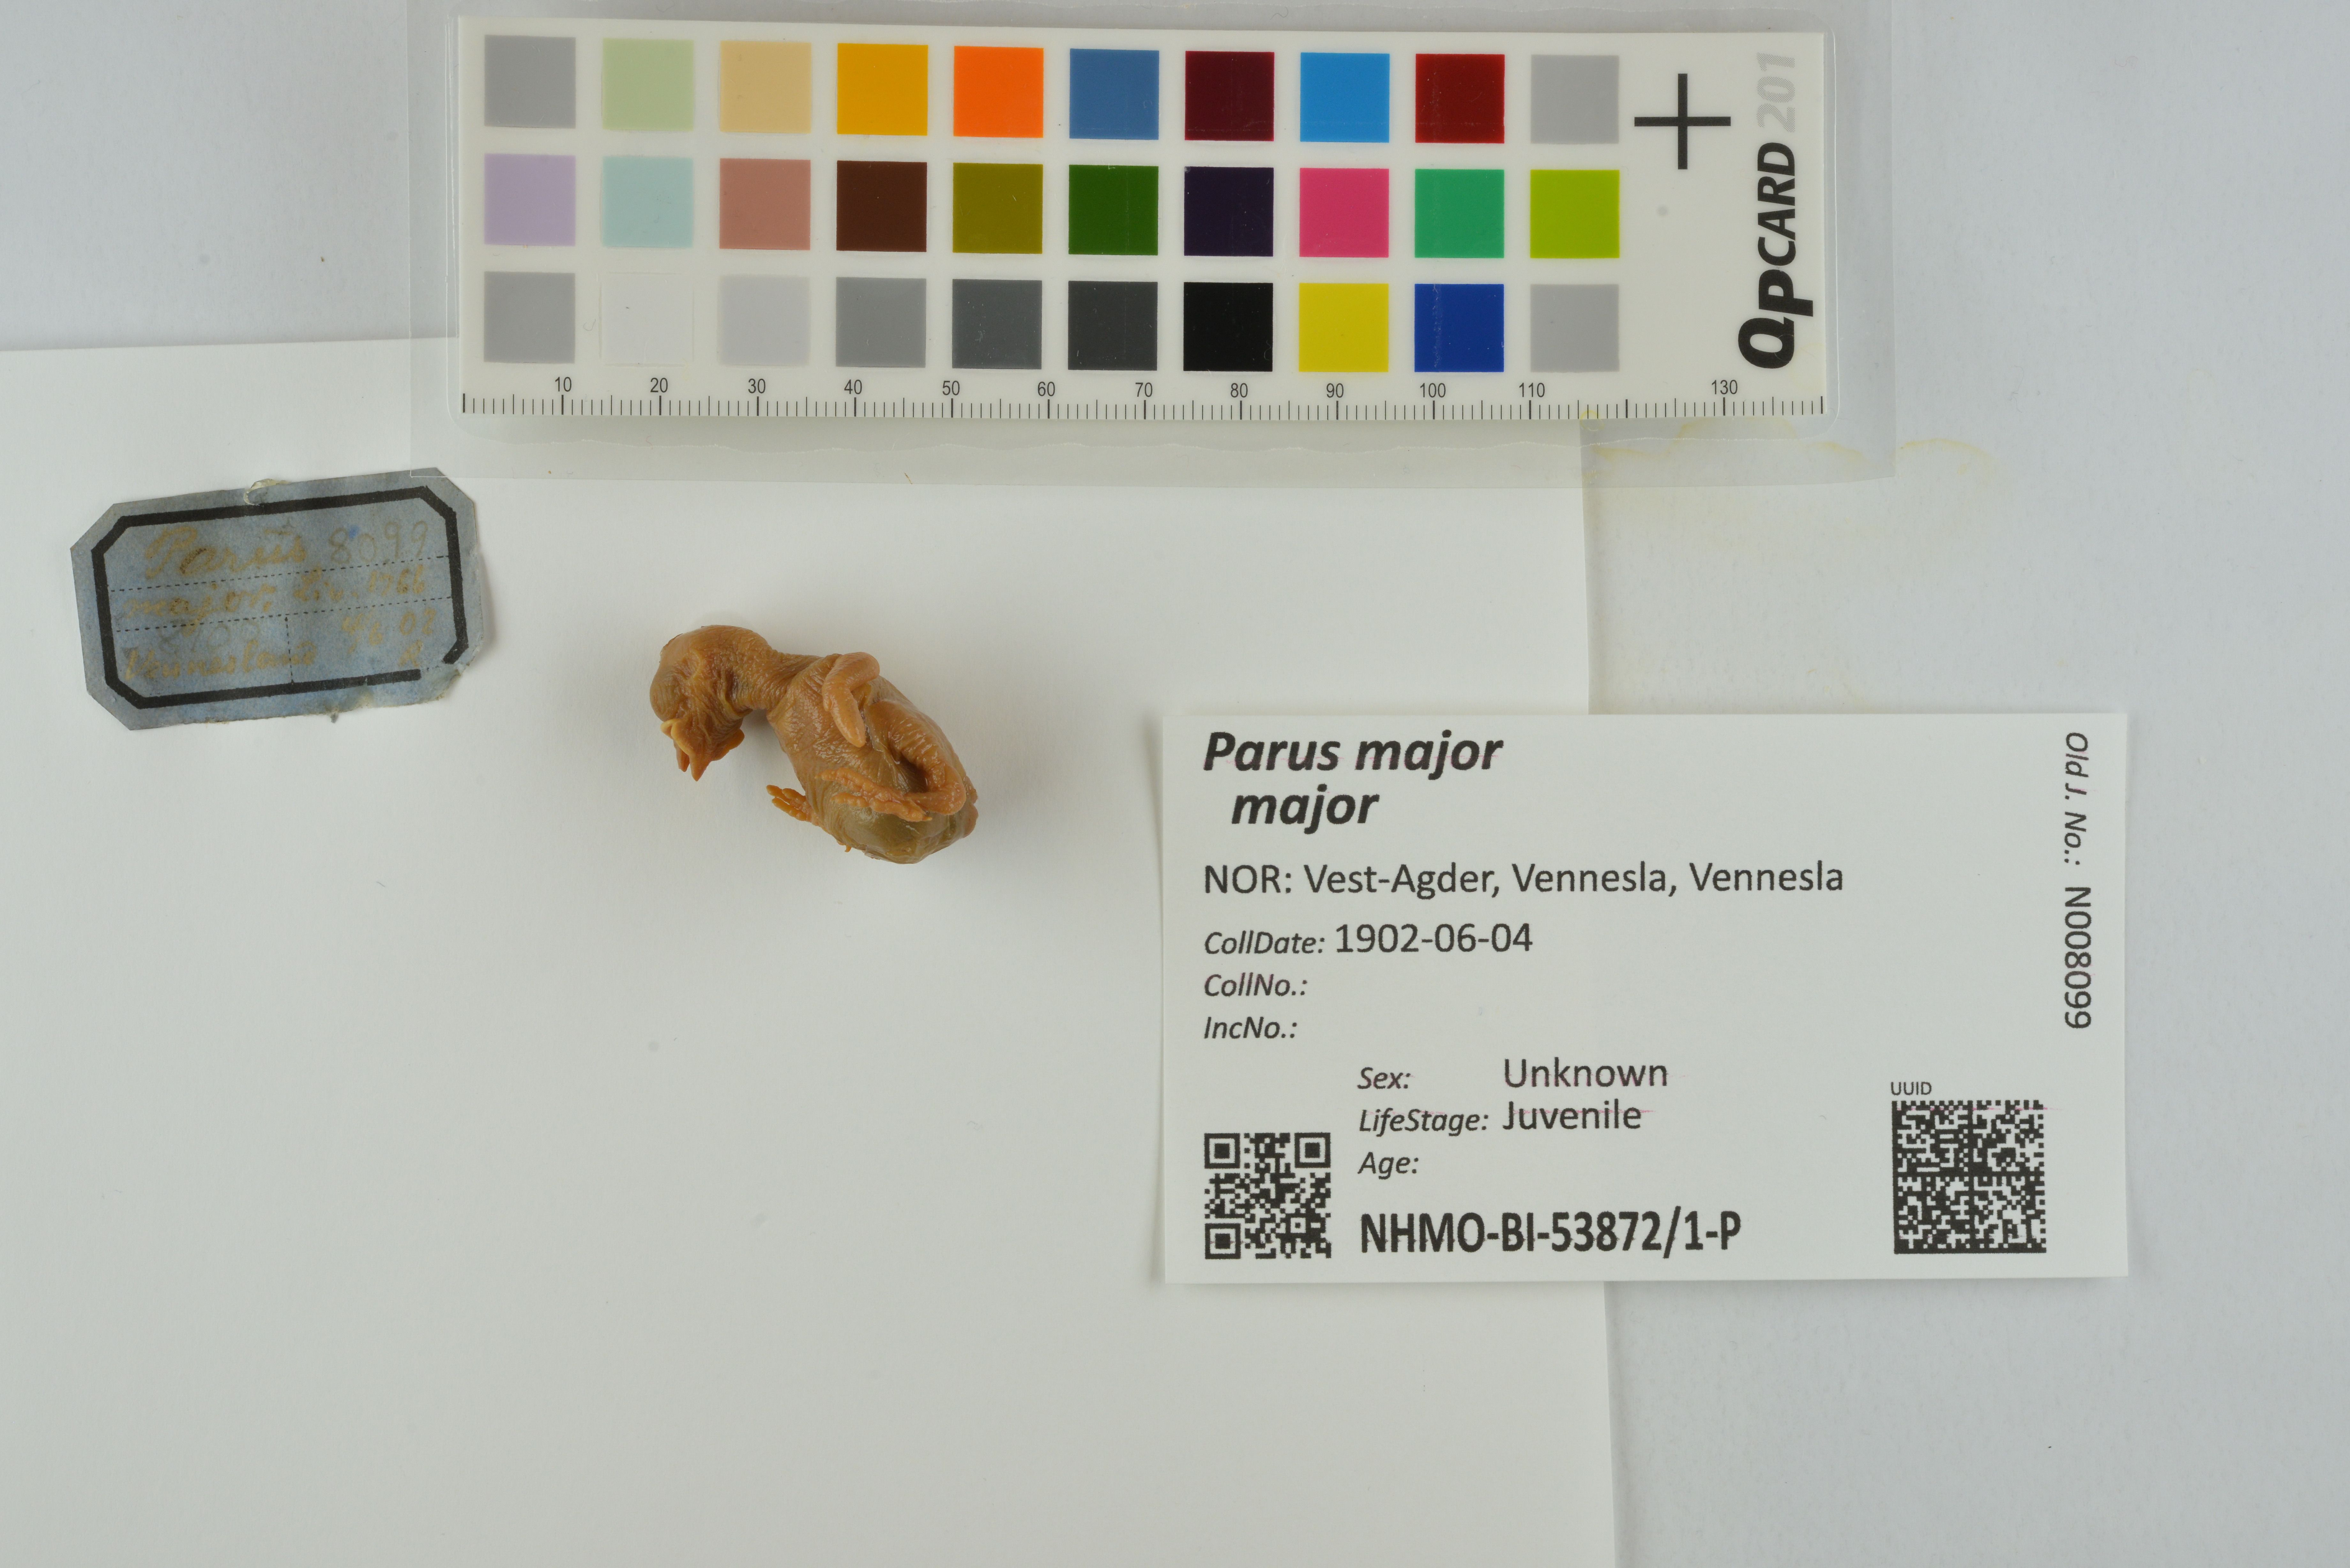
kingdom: Animalia
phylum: Chordata
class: Aves
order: Passeriformes
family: Paridae
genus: Parus
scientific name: Parus major
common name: Great tit
